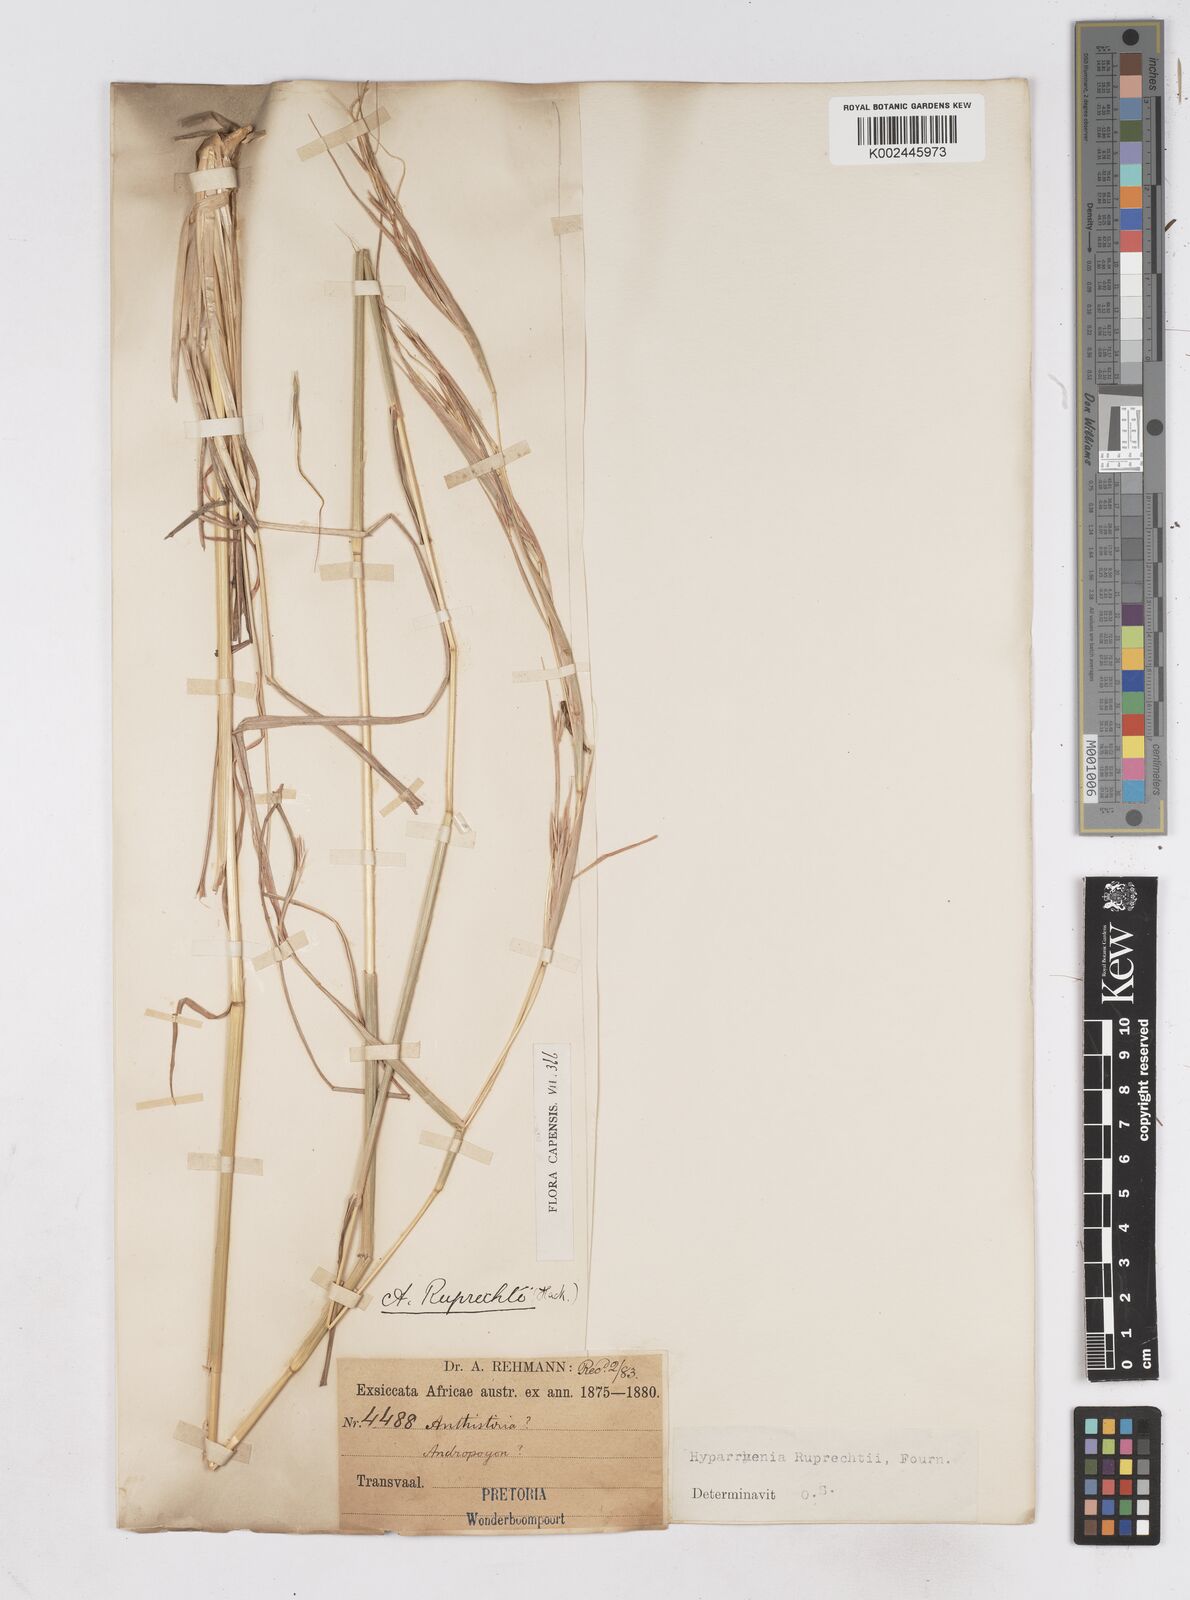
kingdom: Plantae
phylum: Tracheophyta
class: Liliopsida
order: Poales
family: Poaceae
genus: Hyperthelia
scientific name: Hyperthelia dissoluta
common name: Yellow thatching grass
